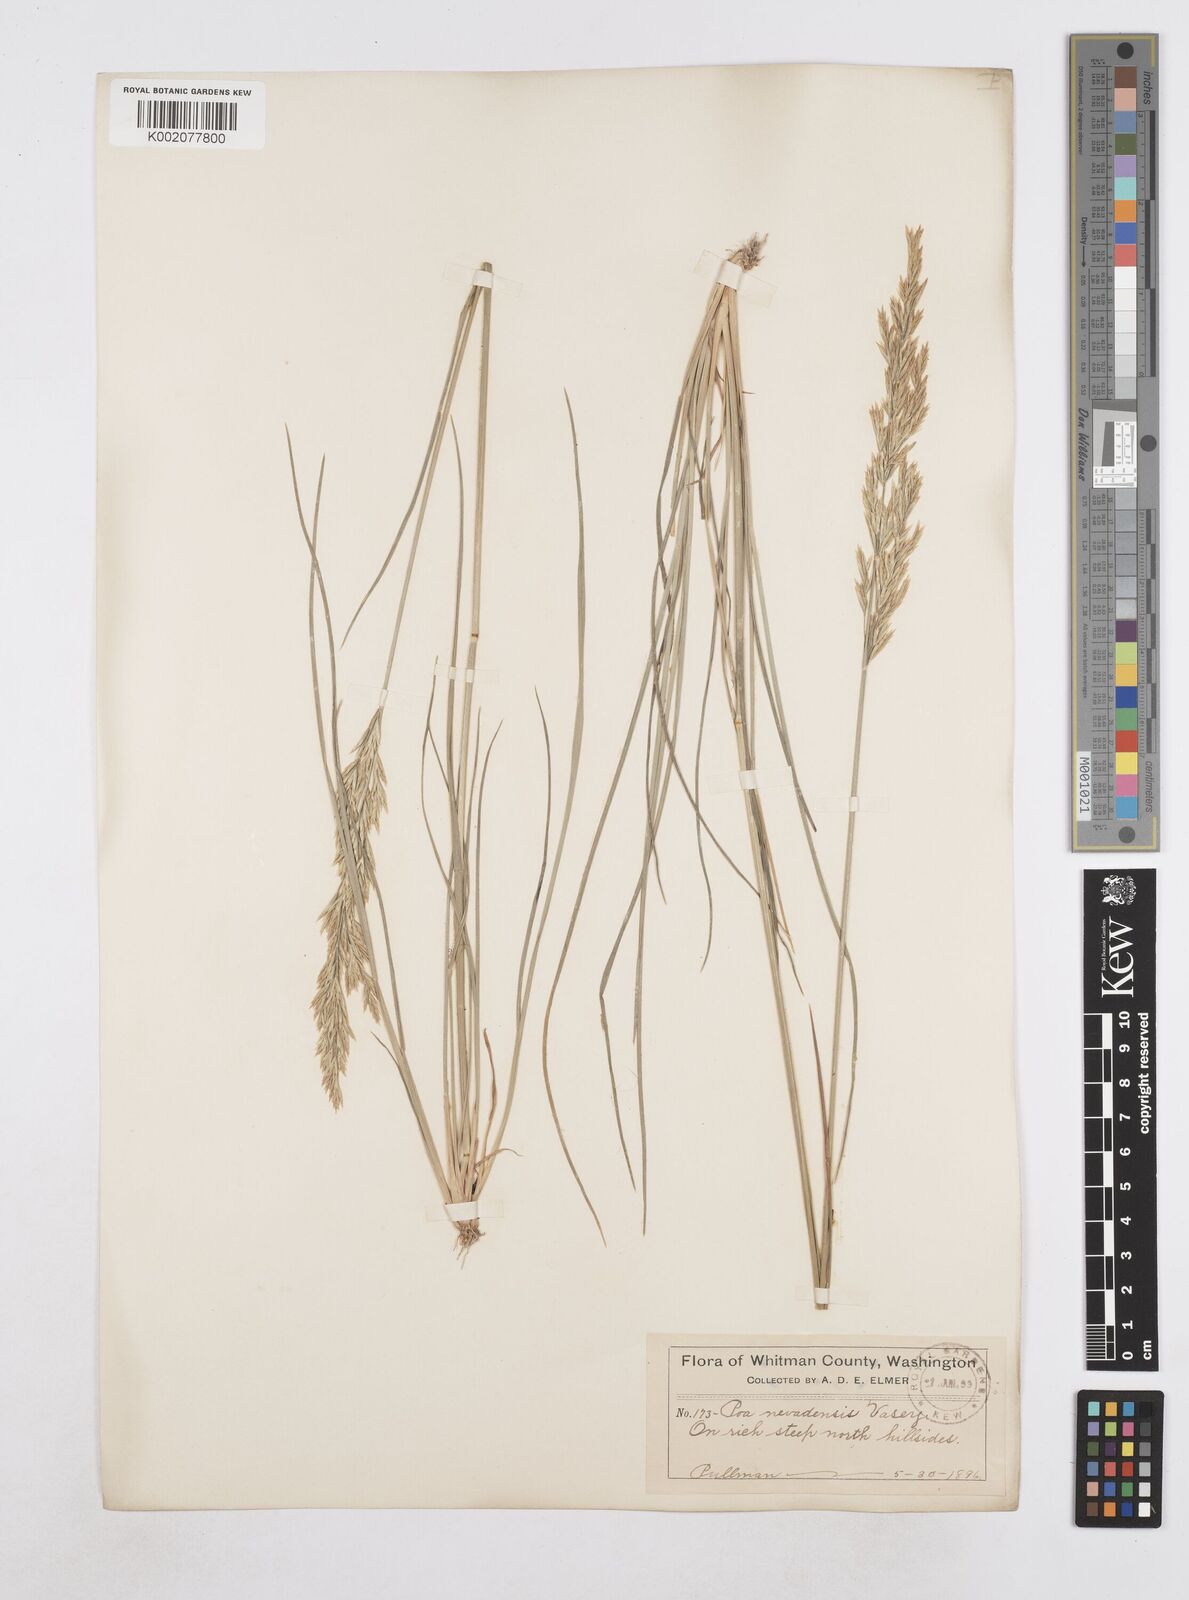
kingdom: Plantae
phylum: Tracheophyta
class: Liliopsida
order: Poales
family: Poaceae
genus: Poa
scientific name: Poa secunda
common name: Sandberg bluegrass
